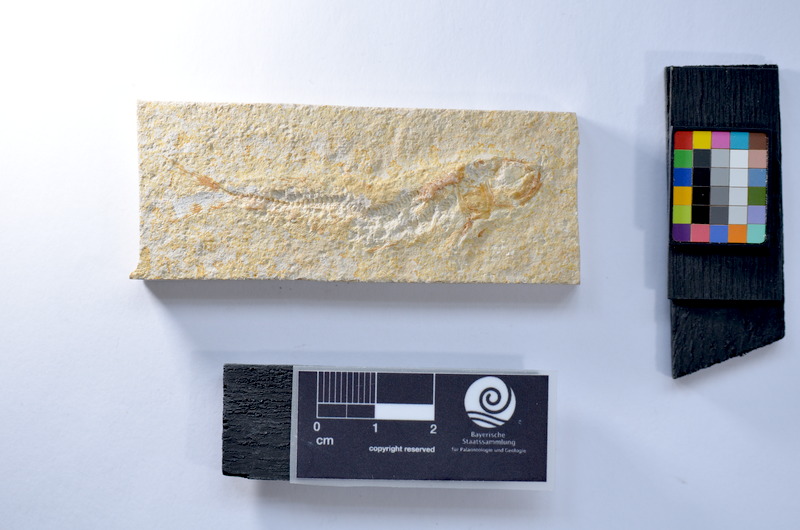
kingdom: Animalia
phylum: Chordata
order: Salmoniformes
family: Orthogonikleithridae
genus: Leptolepides
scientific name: Leptolepides
